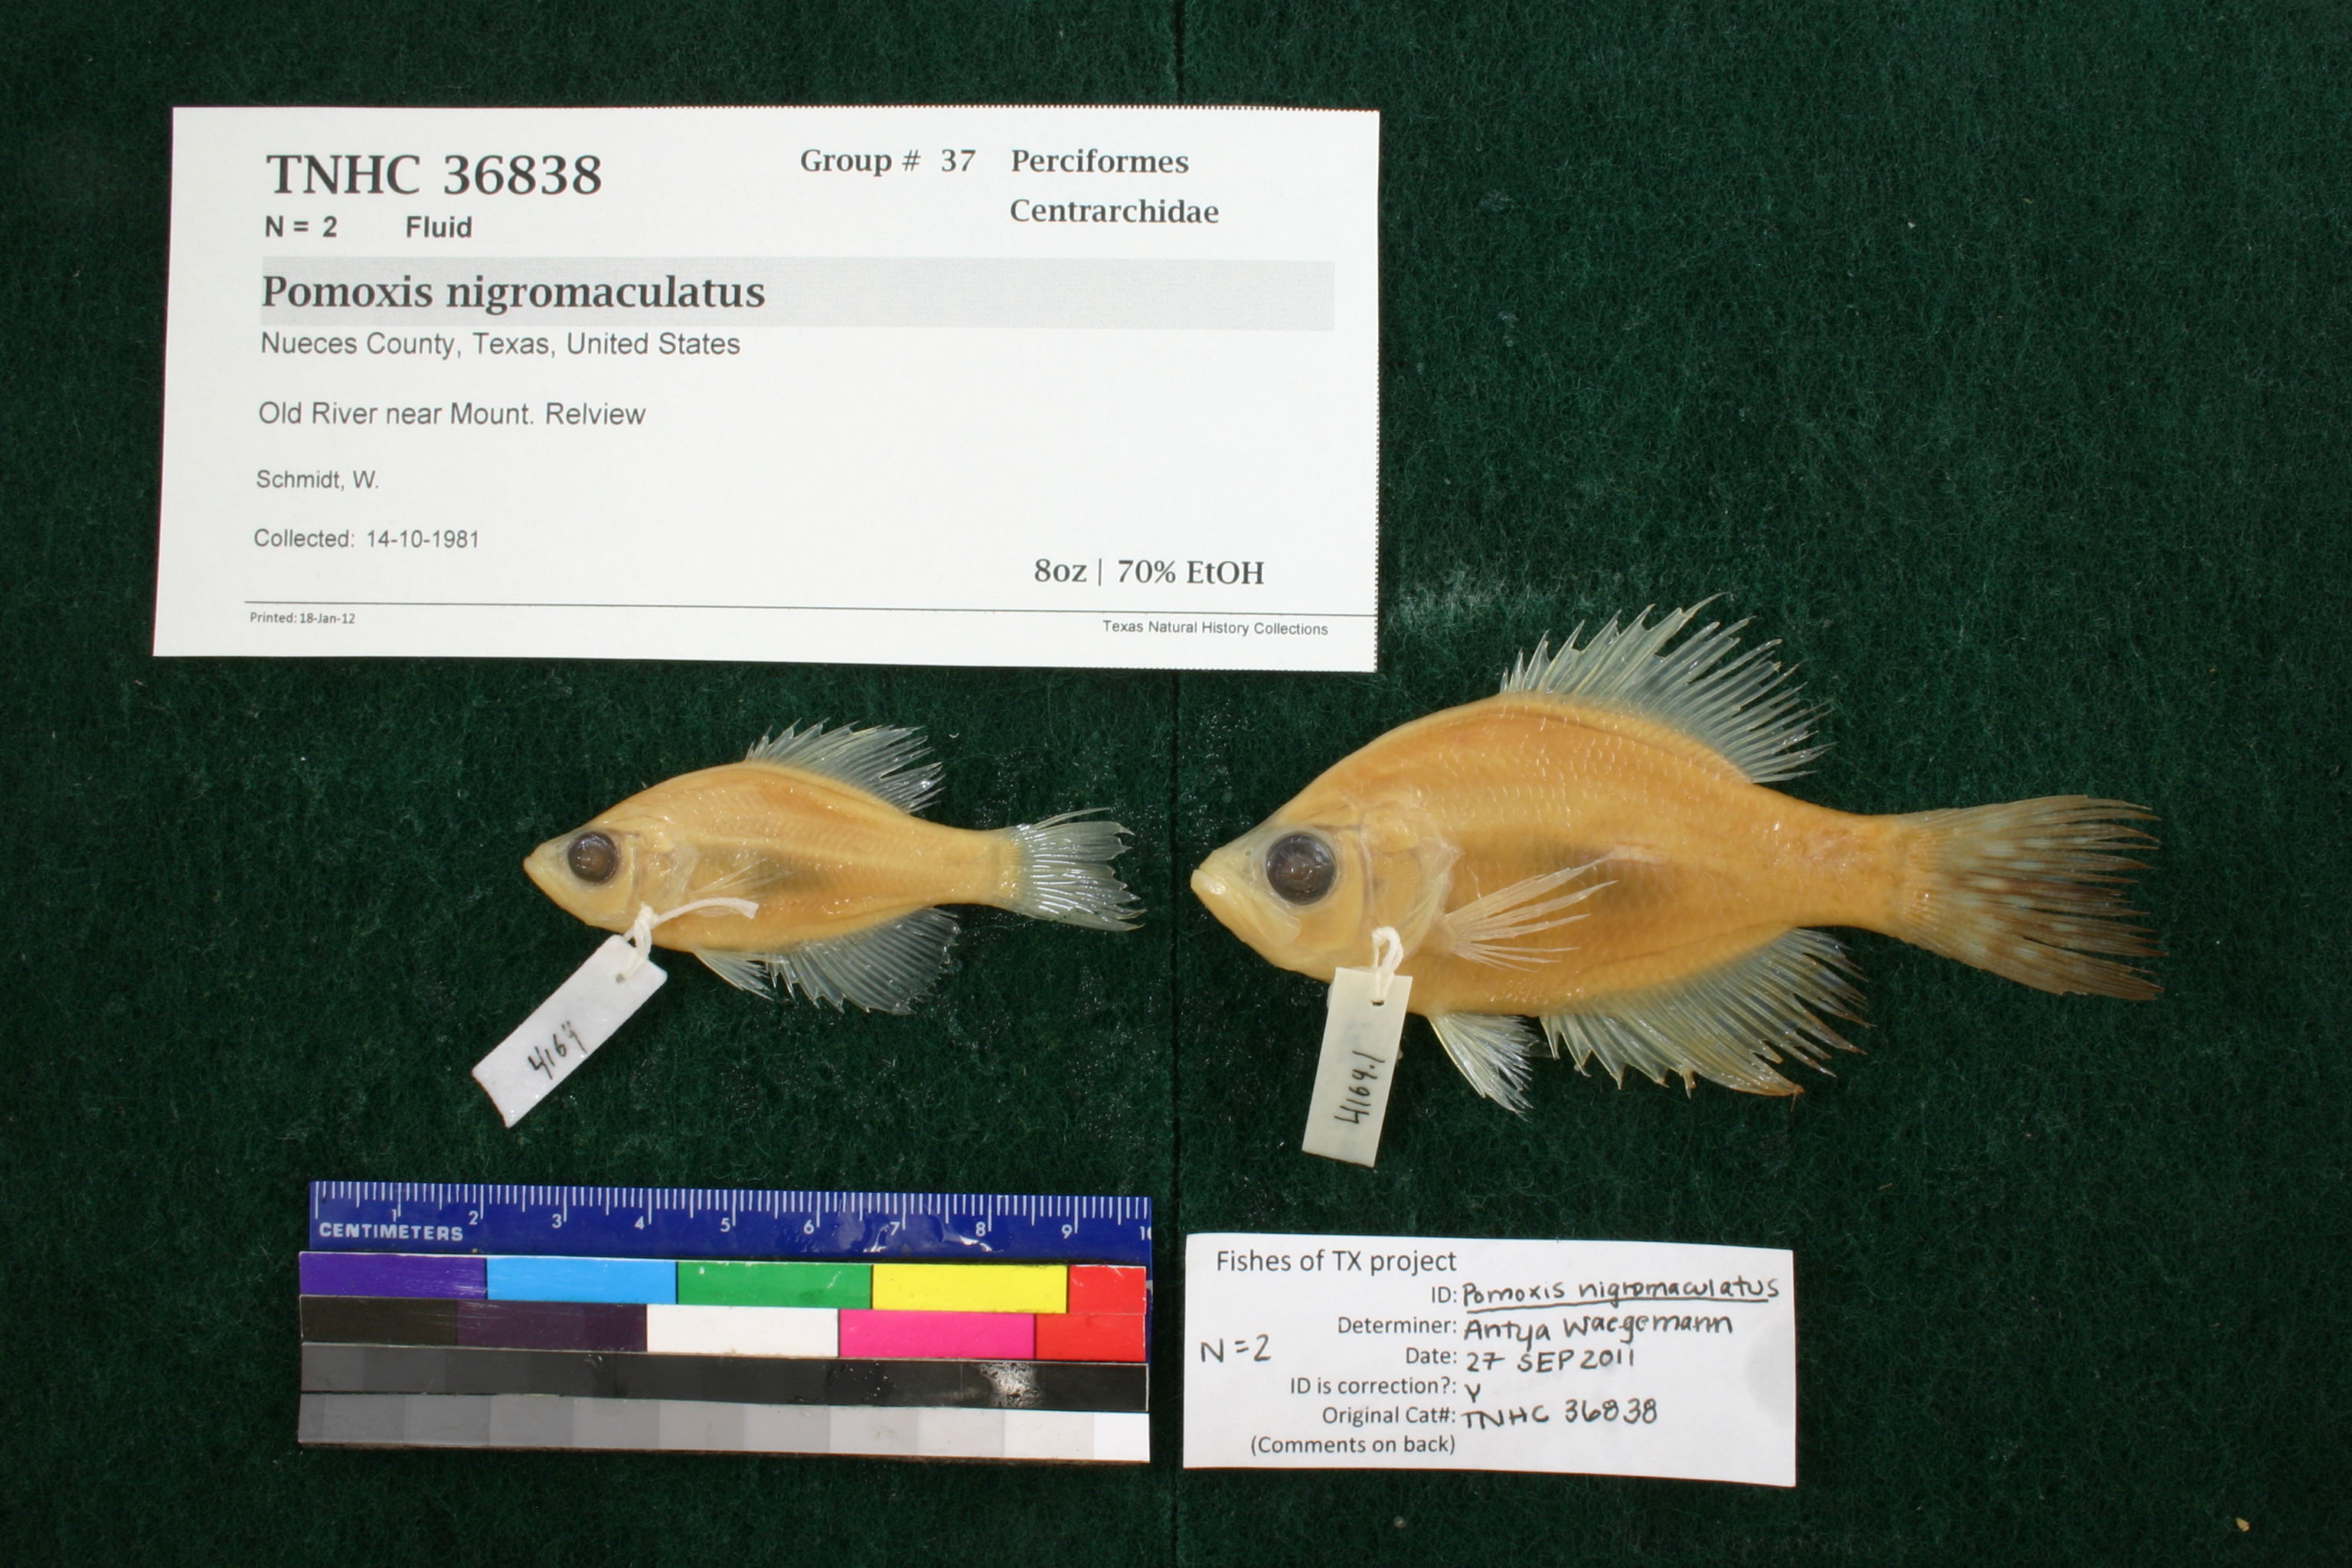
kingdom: Animalia
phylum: Chordata
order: Perciformes
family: Centrarchidae
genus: Pomoxis
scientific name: Pomoxis nigromaculatus
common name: Black crappie
